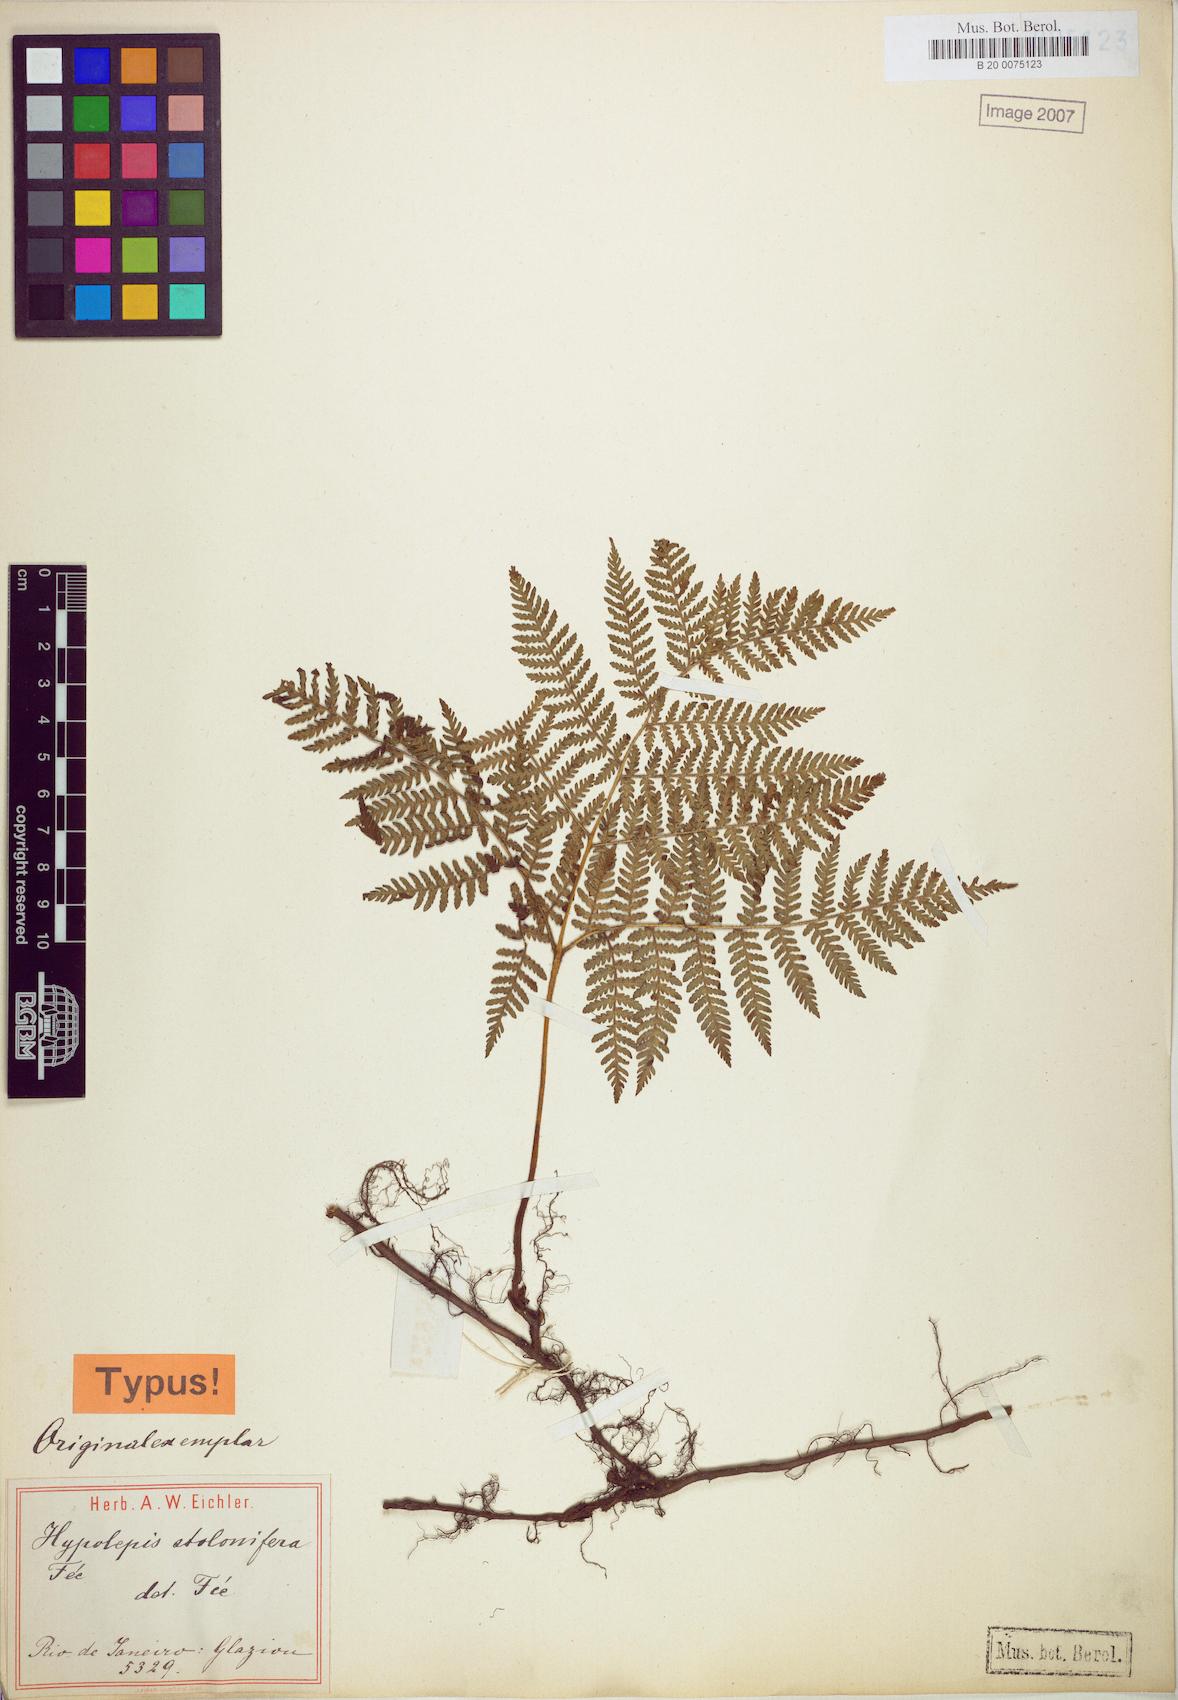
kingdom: Plantae
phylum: Tracheophyta
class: Polypodiopsida
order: Polypodiales
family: Dennstaedtiaceae
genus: Hypolepis
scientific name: Hypolepis stolonifera
